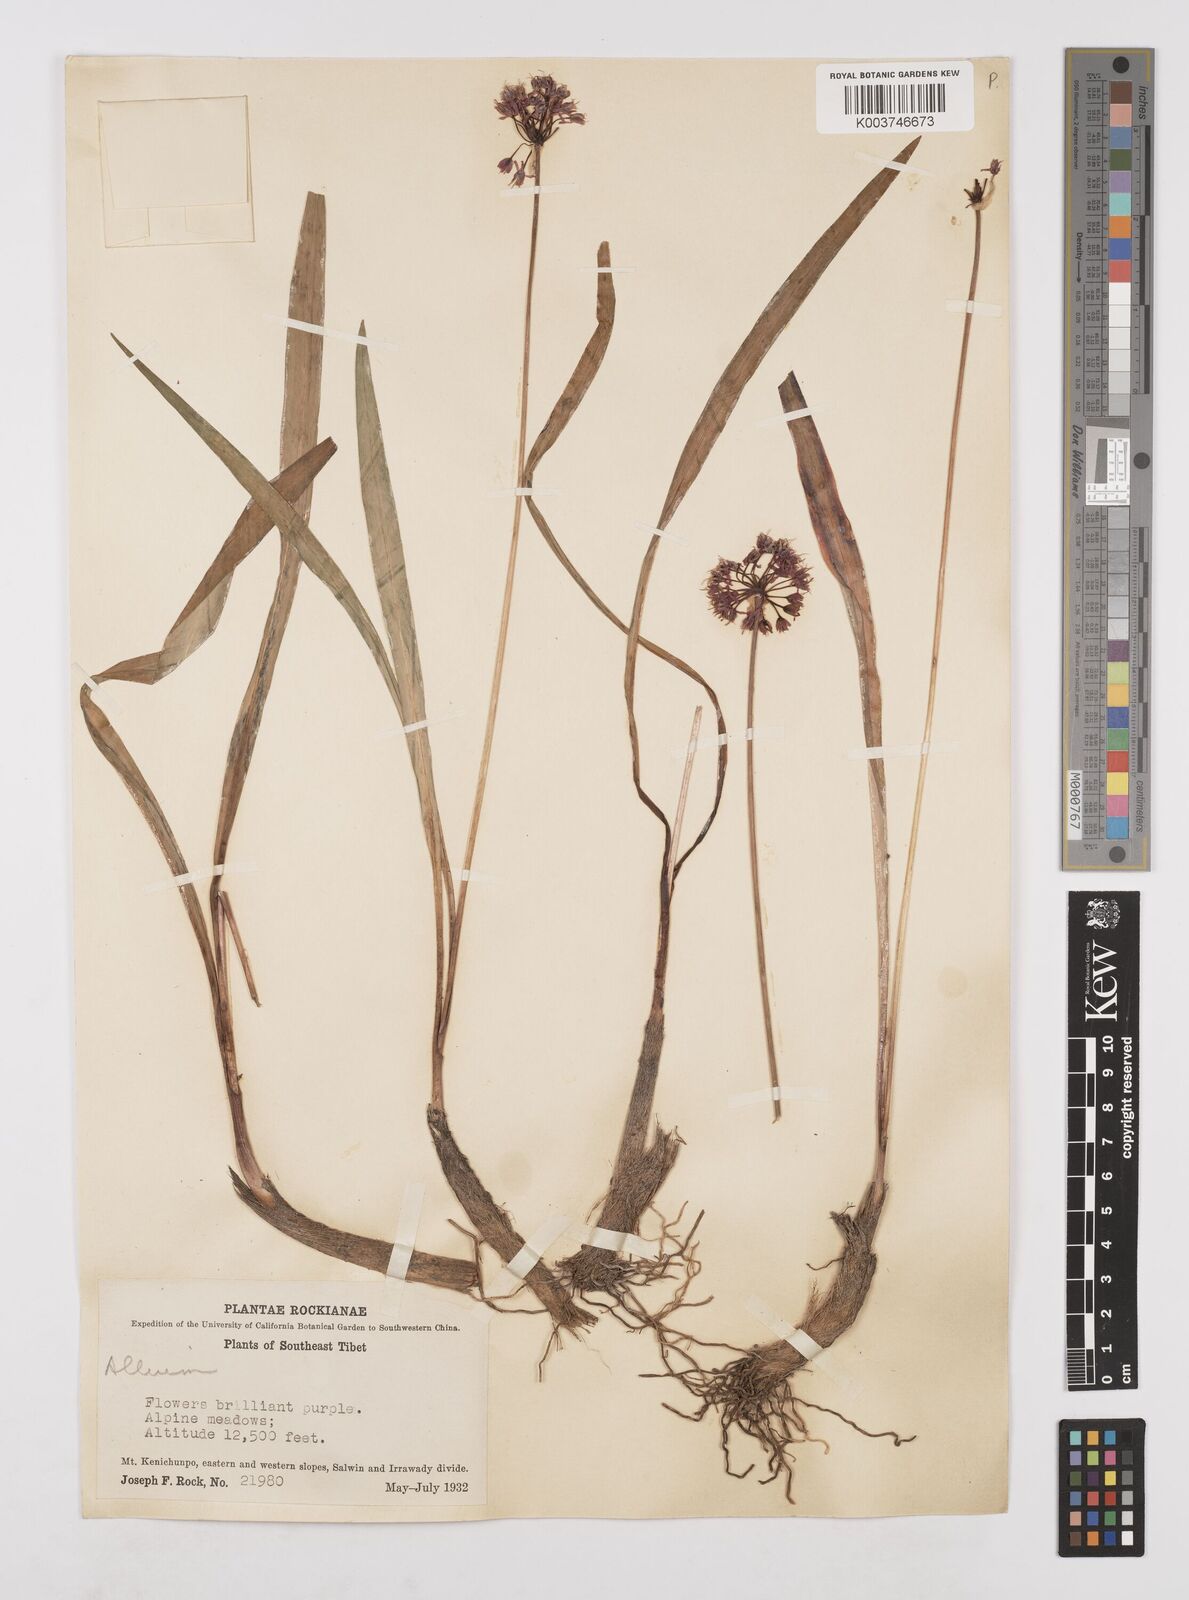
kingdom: Plantae
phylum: Tracheophyta
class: Liliopsida
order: Asparagales
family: Amaryllidaceae
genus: Allium
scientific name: Allium prattii
